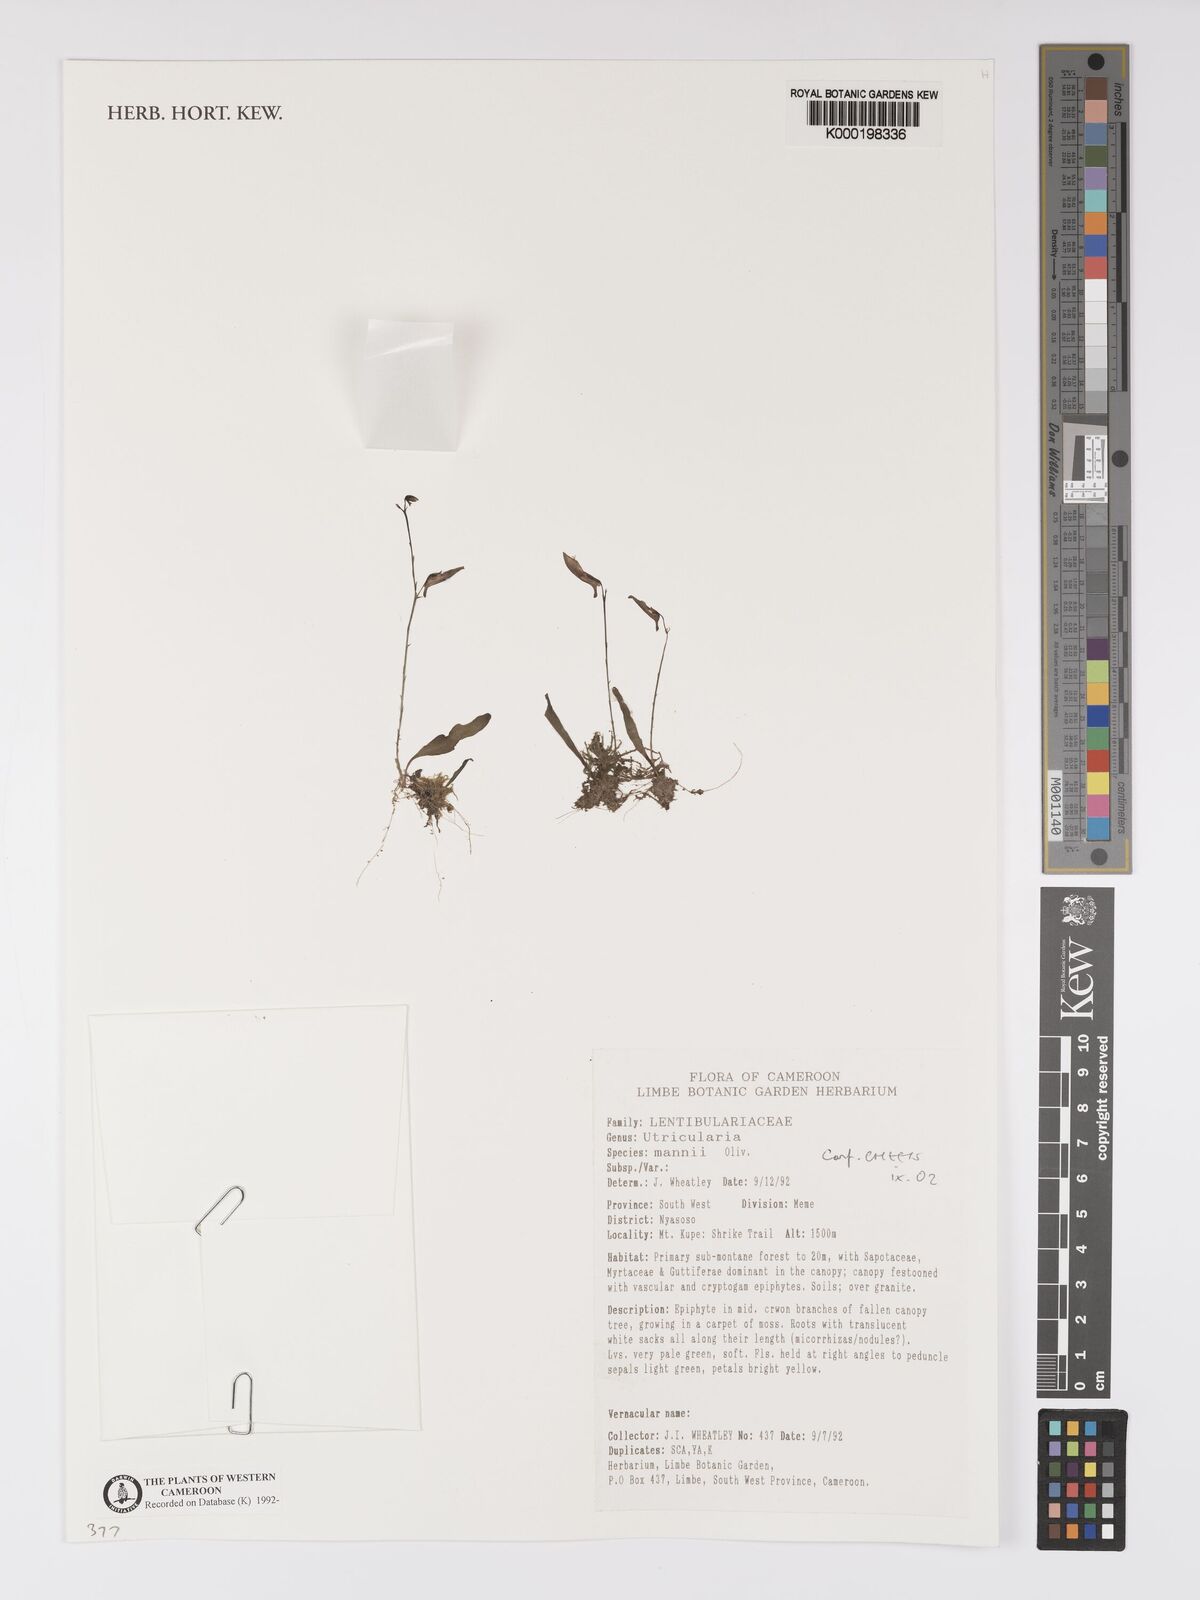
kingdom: Plantae
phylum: Tracheophyta
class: Magnoliopsida
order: Lamiales
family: Lentibulariaceae
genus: Utricularia
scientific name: Utricularia mannii
